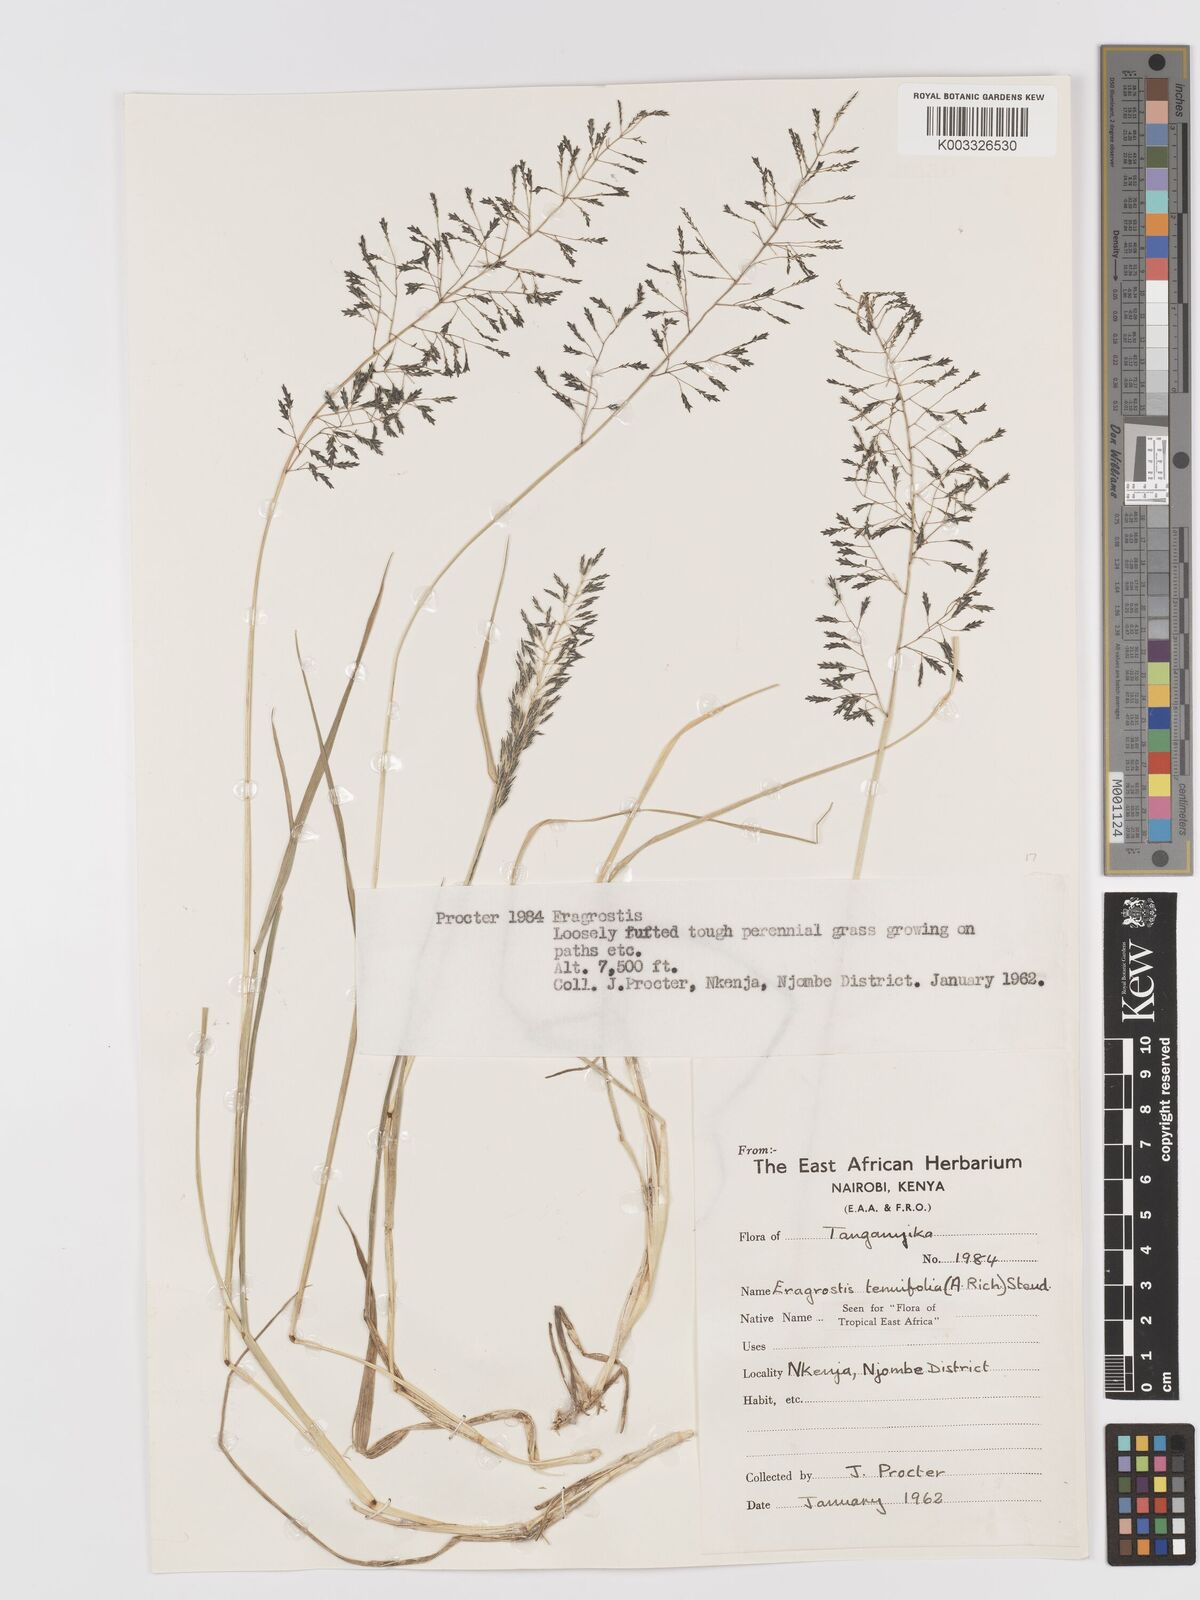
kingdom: Plantae
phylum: Tracheophyta
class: Liliopsida
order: Poales
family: Poaceae
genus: Eragrostis
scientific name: Eragrostis tenuifolia
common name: Elastic grass
